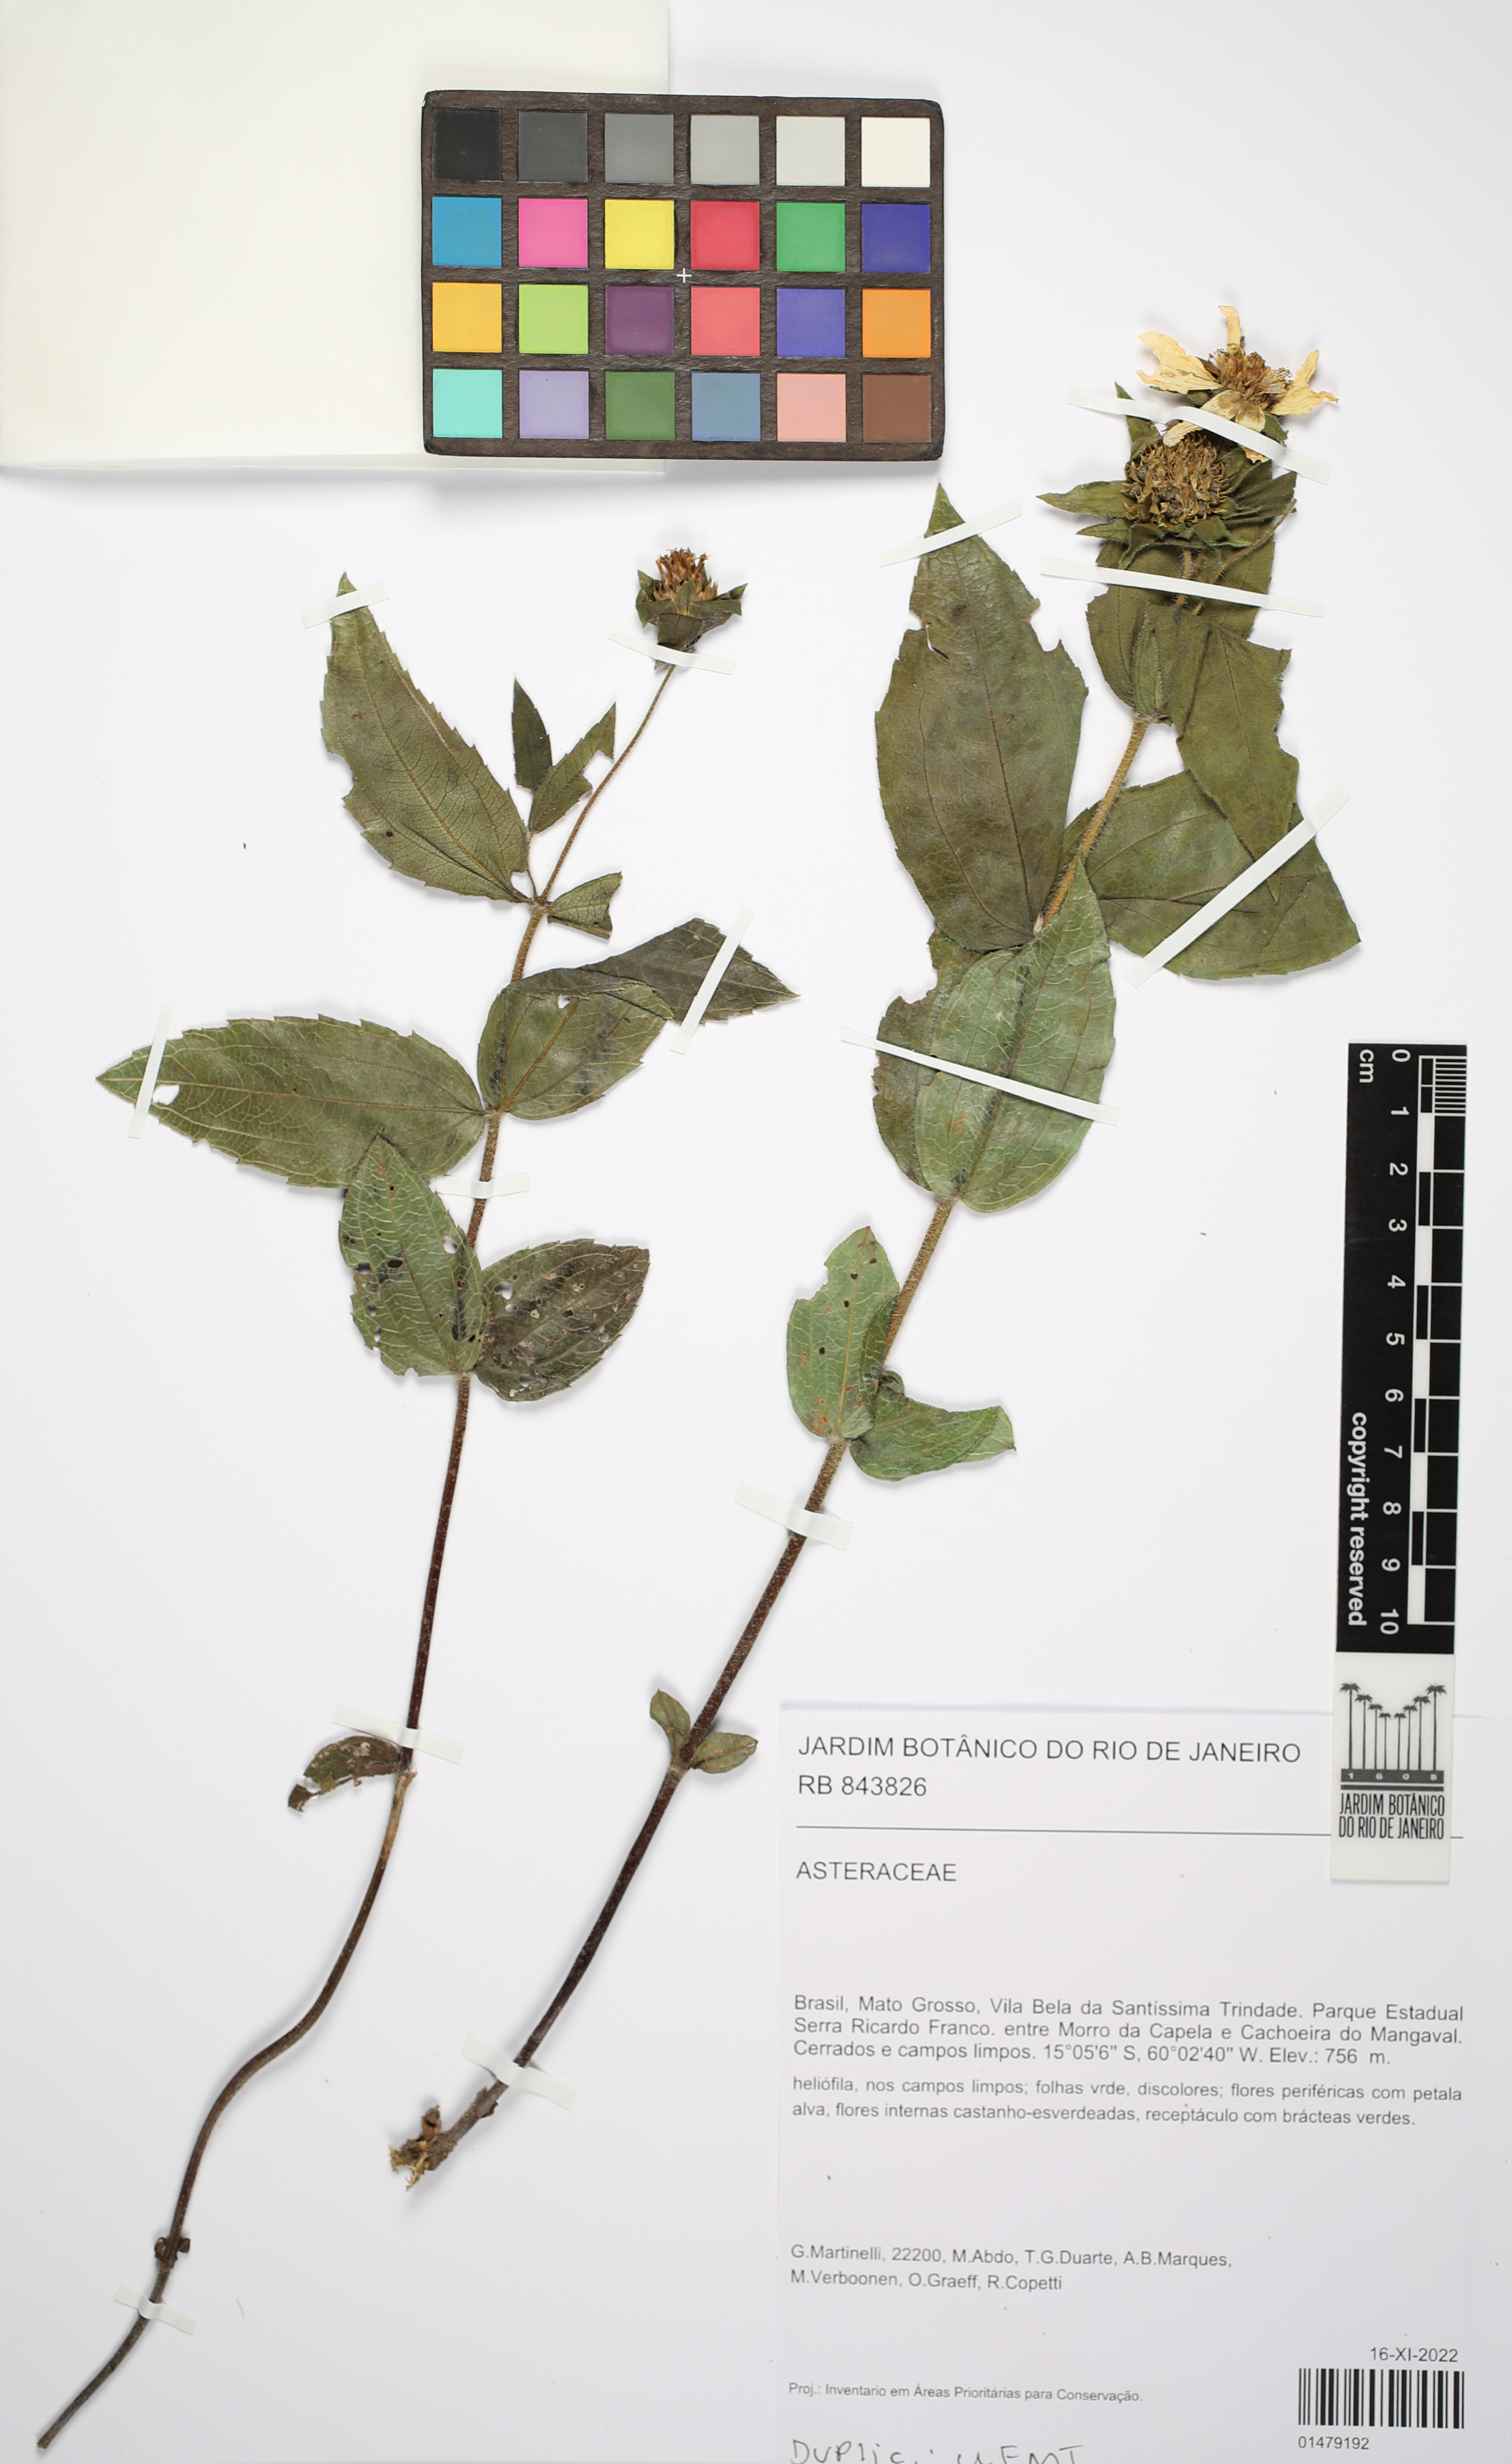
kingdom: Plantae
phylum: Tracheophyta
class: Magnoliopsida
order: Asterales
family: Asteraceae
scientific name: Asteraceae
